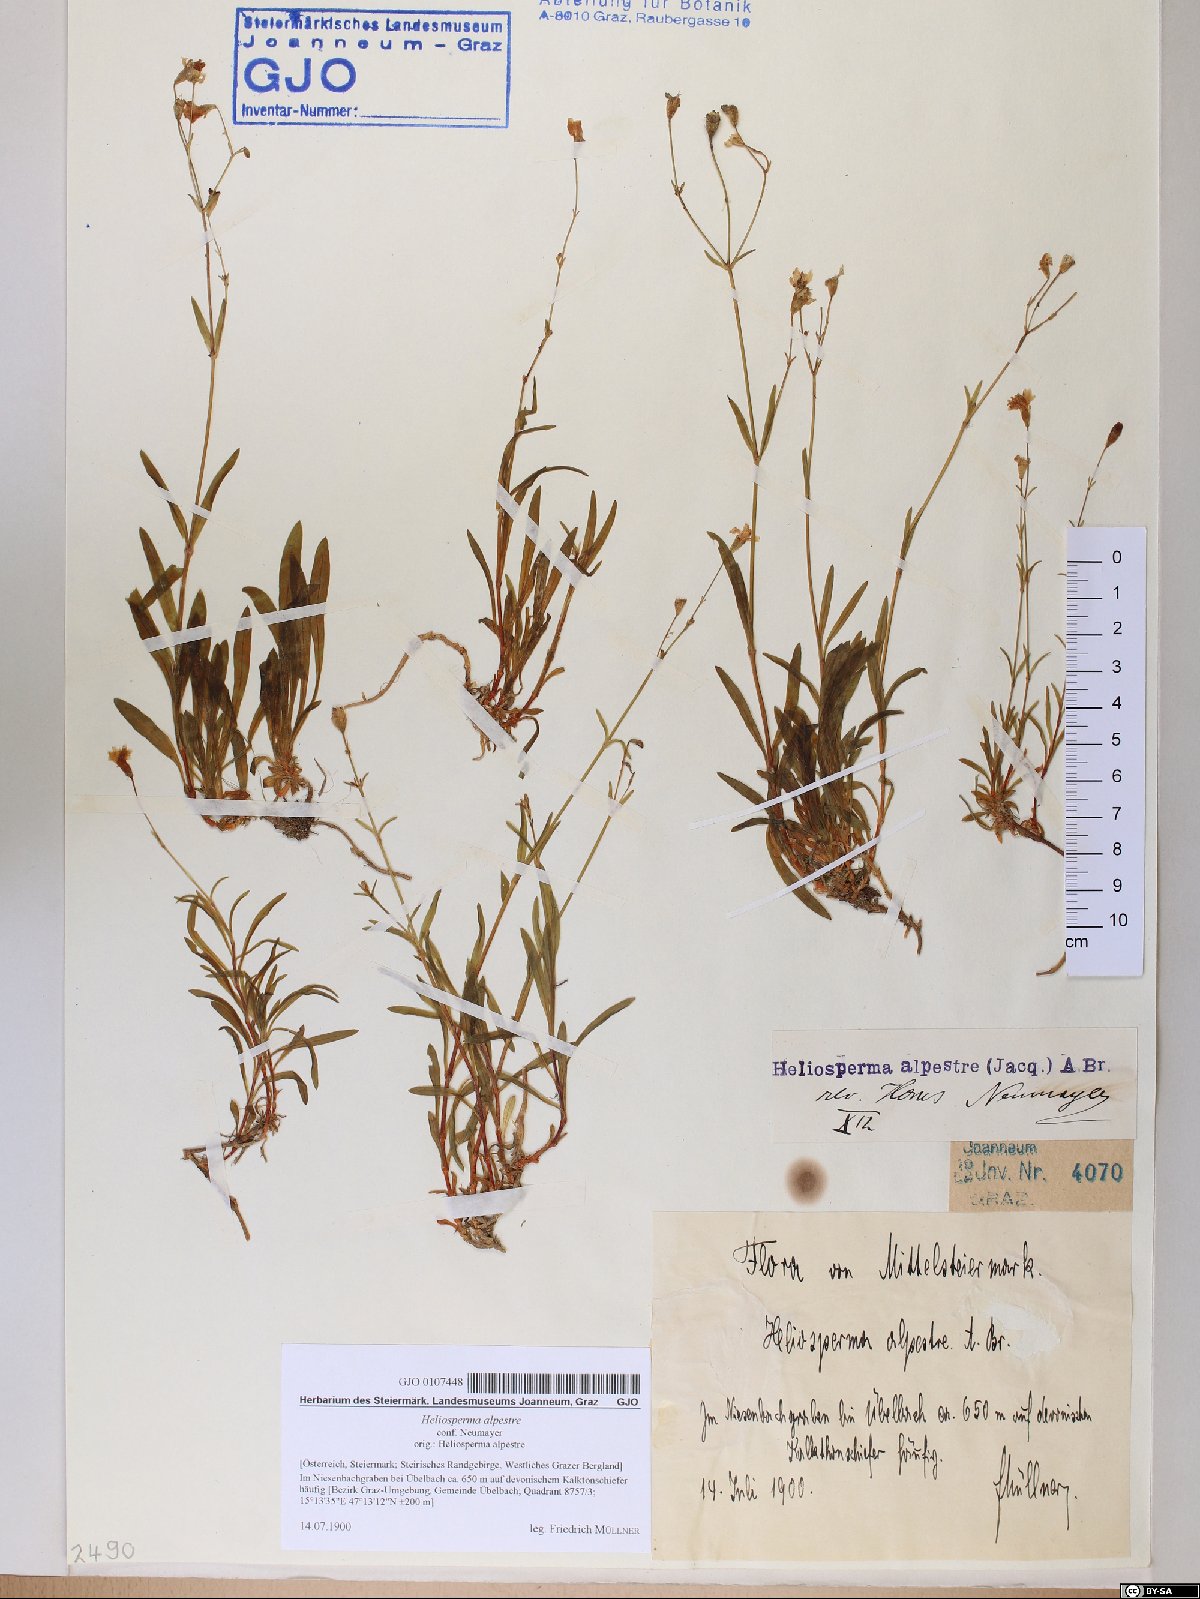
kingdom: Plantae
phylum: Tracheophyta
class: Magnoliopsida
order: Caryophyllales
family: Caryophyllaceae
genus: Heliosperma
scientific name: Heliosperma alpestre
